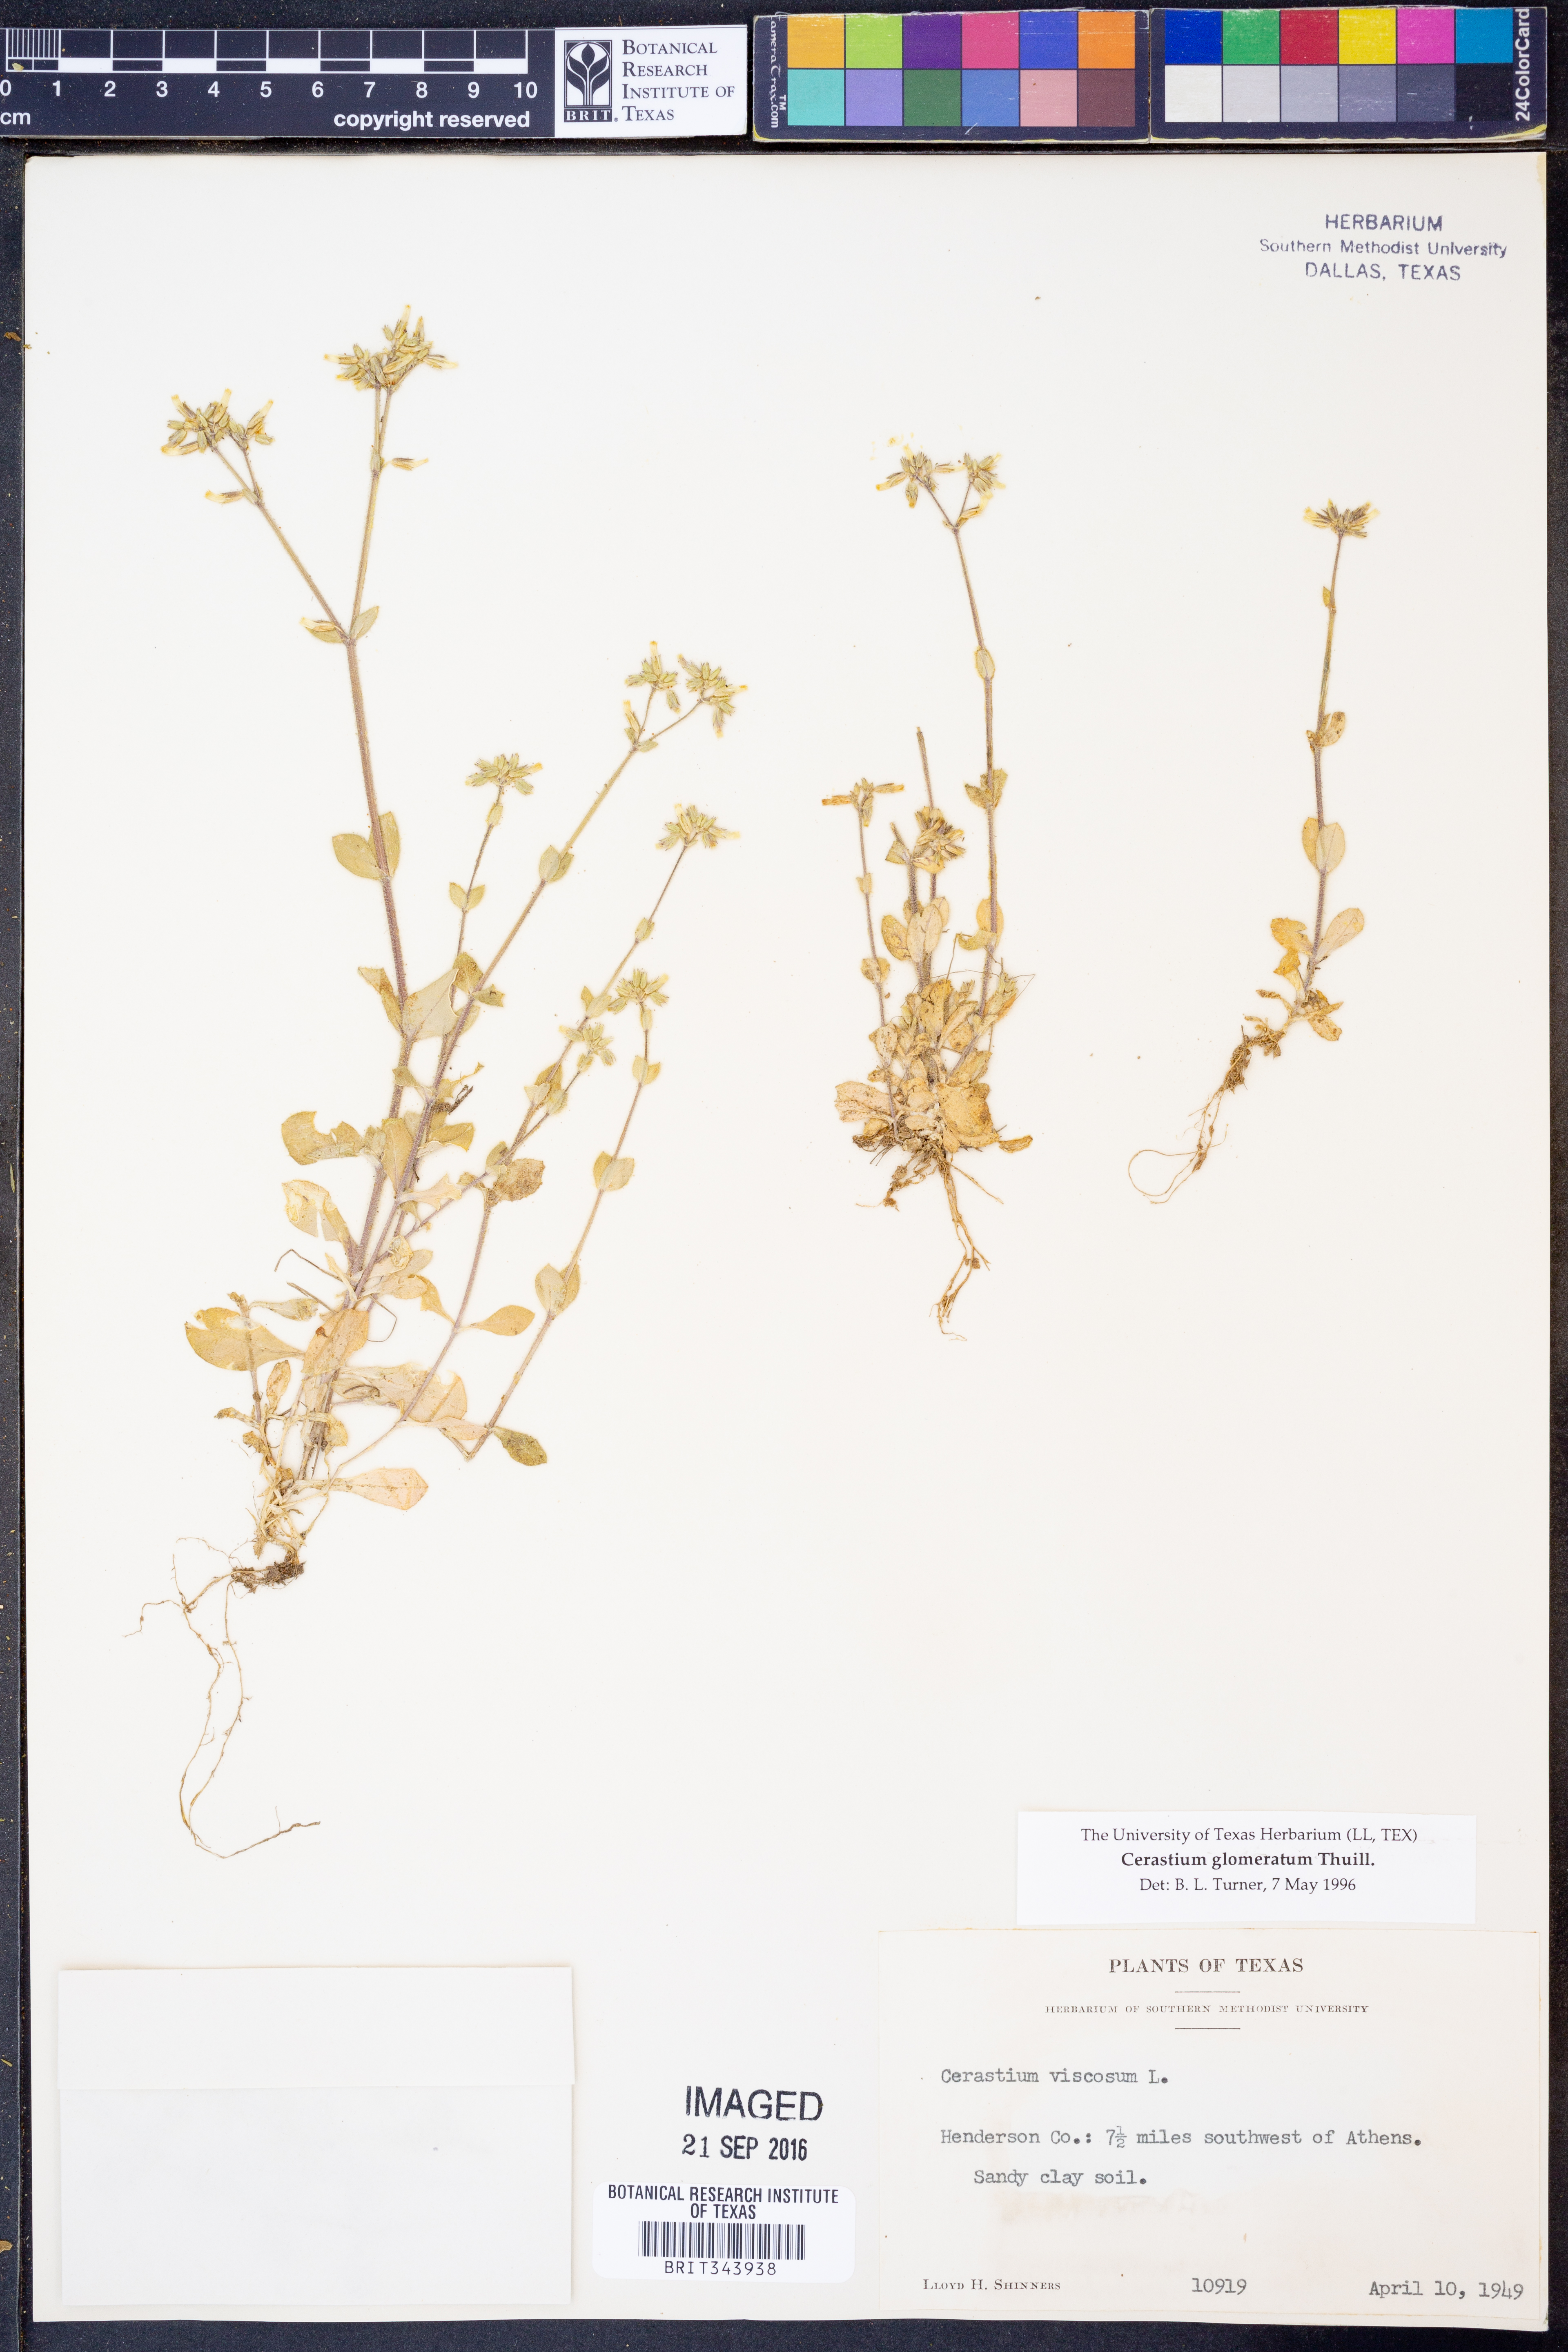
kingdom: Plantae
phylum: Tracheophyta
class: Magnoliopsida
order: Caryophyllales
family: Caryophyllaceae
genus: Cerastium
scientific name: Cerastium glomeratum
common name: Sticky chickweed
